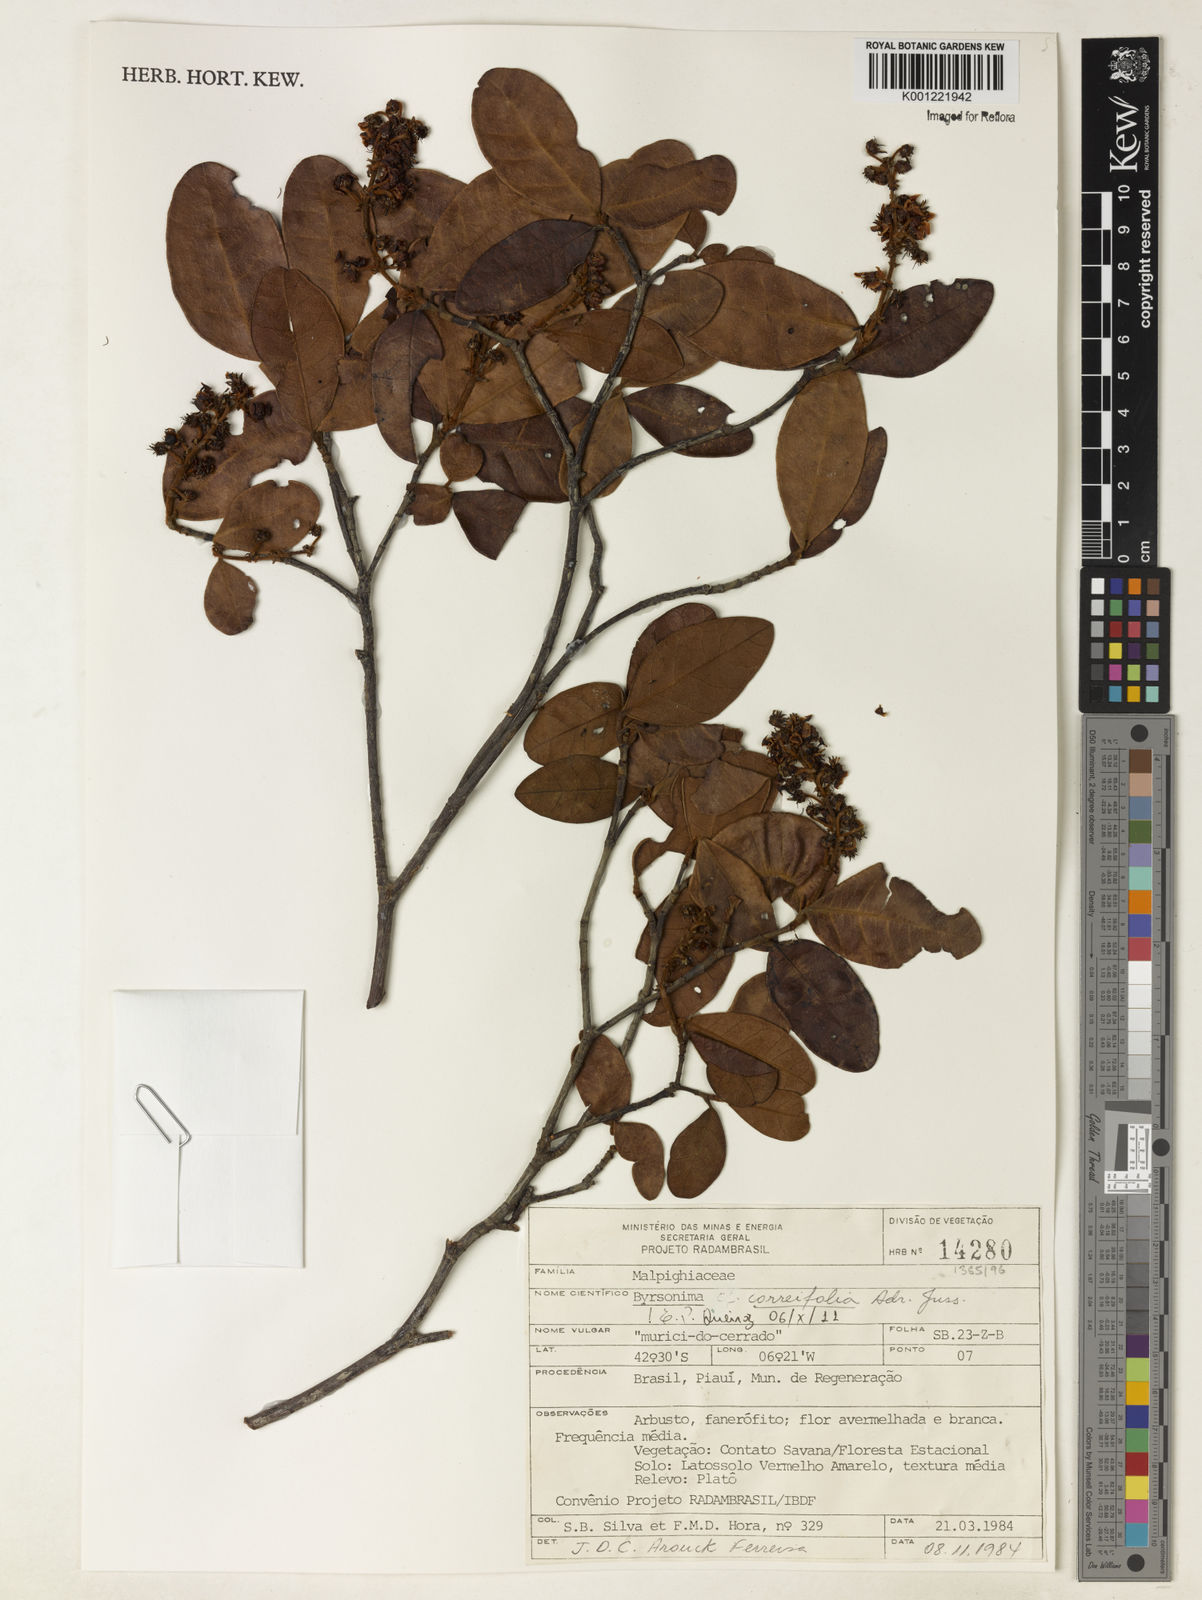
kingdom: Plantae
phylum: Tracheophyta
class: Magnoliopsida
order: Malpighiales
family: Malpighiaceae
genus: Byrsonima
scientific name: Byrsonima correifolia
